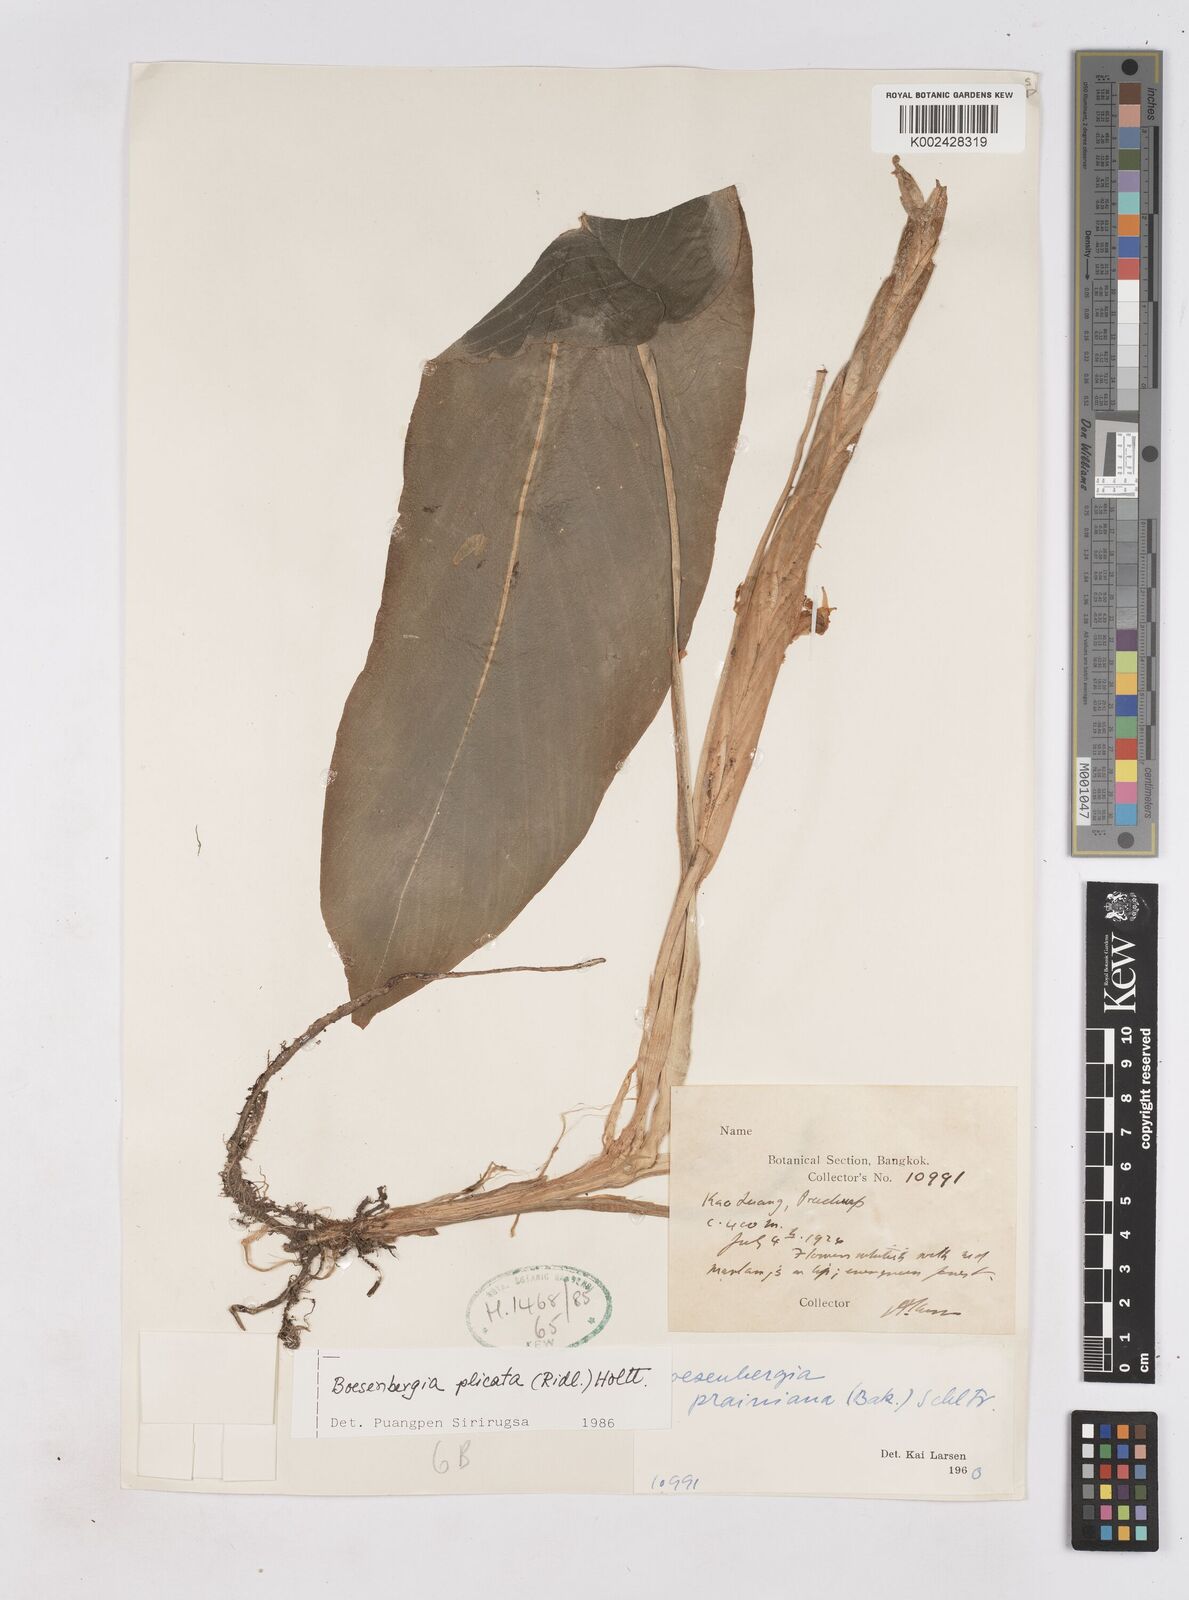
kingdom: Plantae
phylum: Tracheophyta
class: Liliopsida
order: Zingiberales
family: Zingiberaceae
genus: Boesenbergia
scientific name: Boesenbergia plicata
